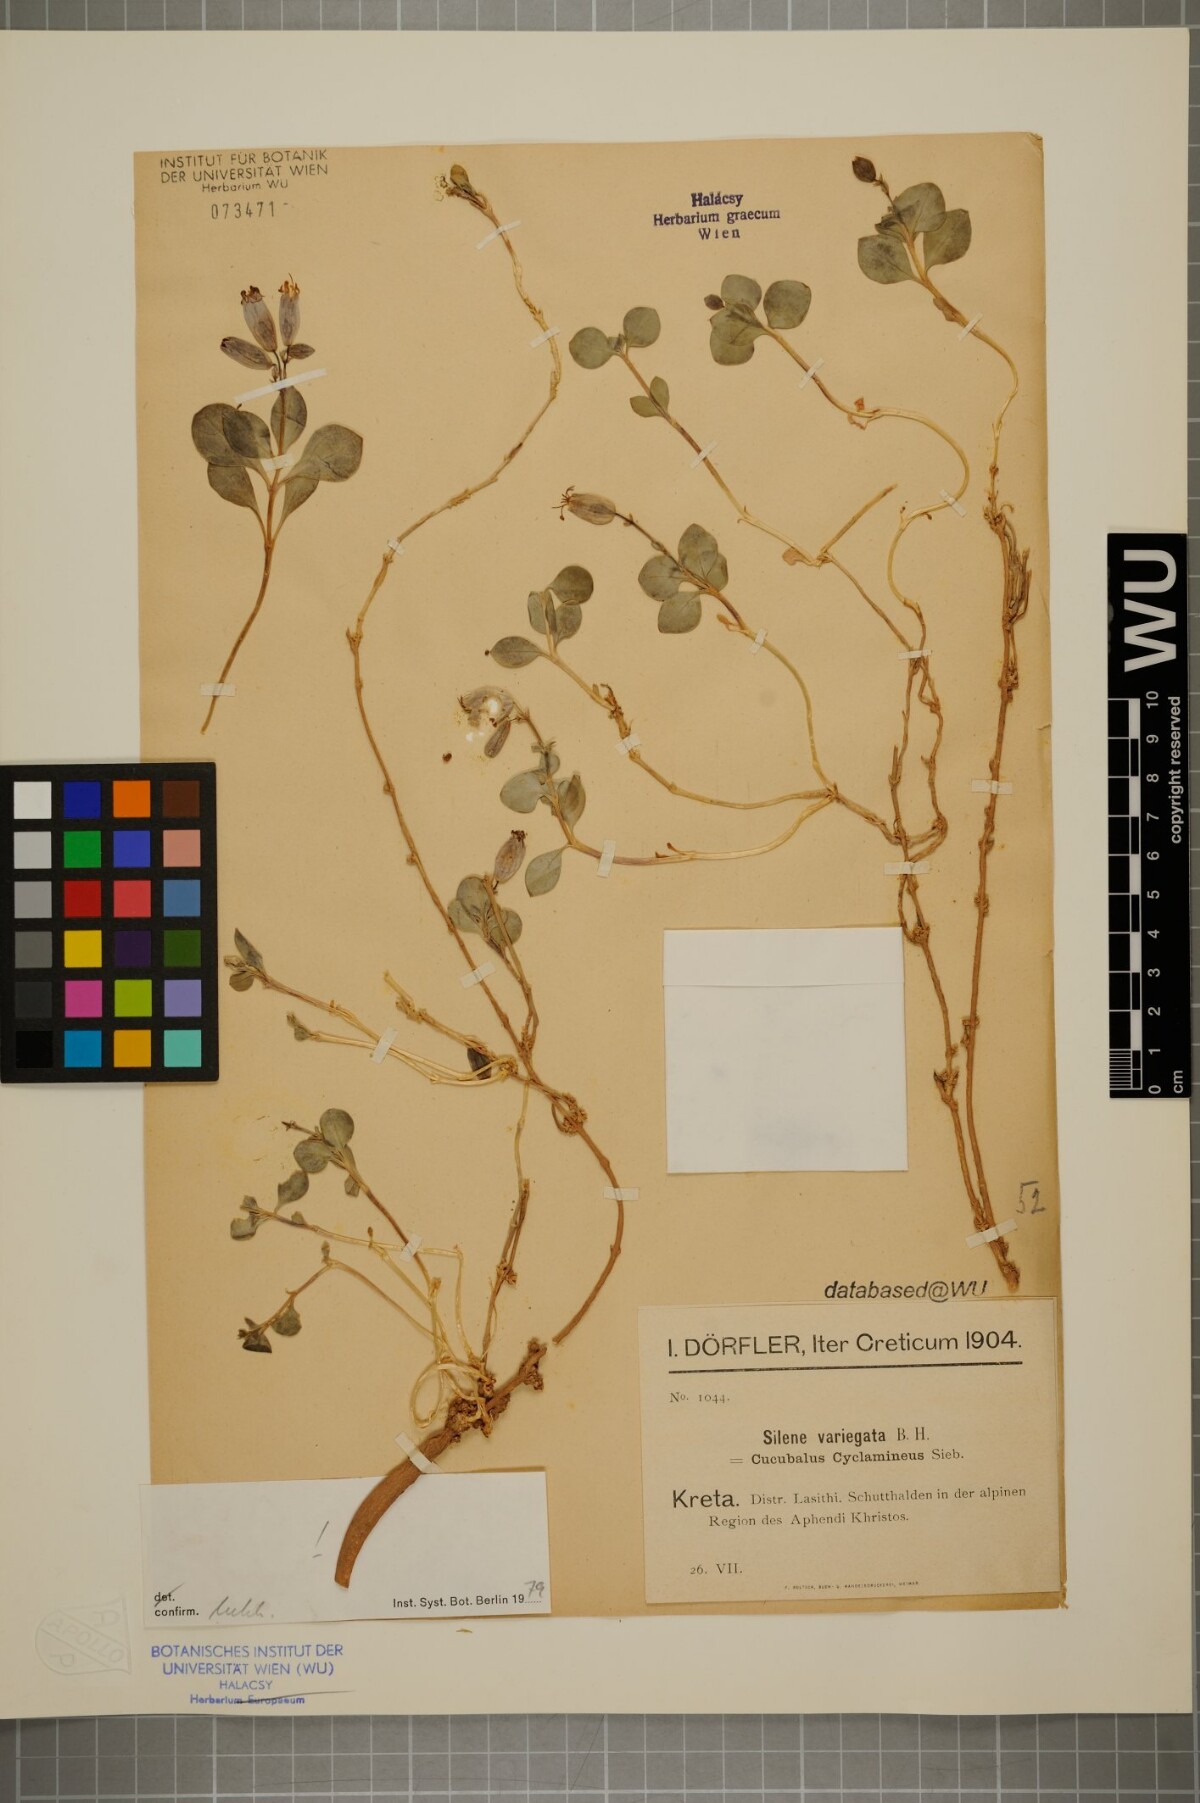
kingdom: Plantae
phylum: Tracheophyta
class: Magnoliopsida
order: Caryophyllales
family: Caryophyllaceae
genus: Silene
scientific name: Silene variegata
